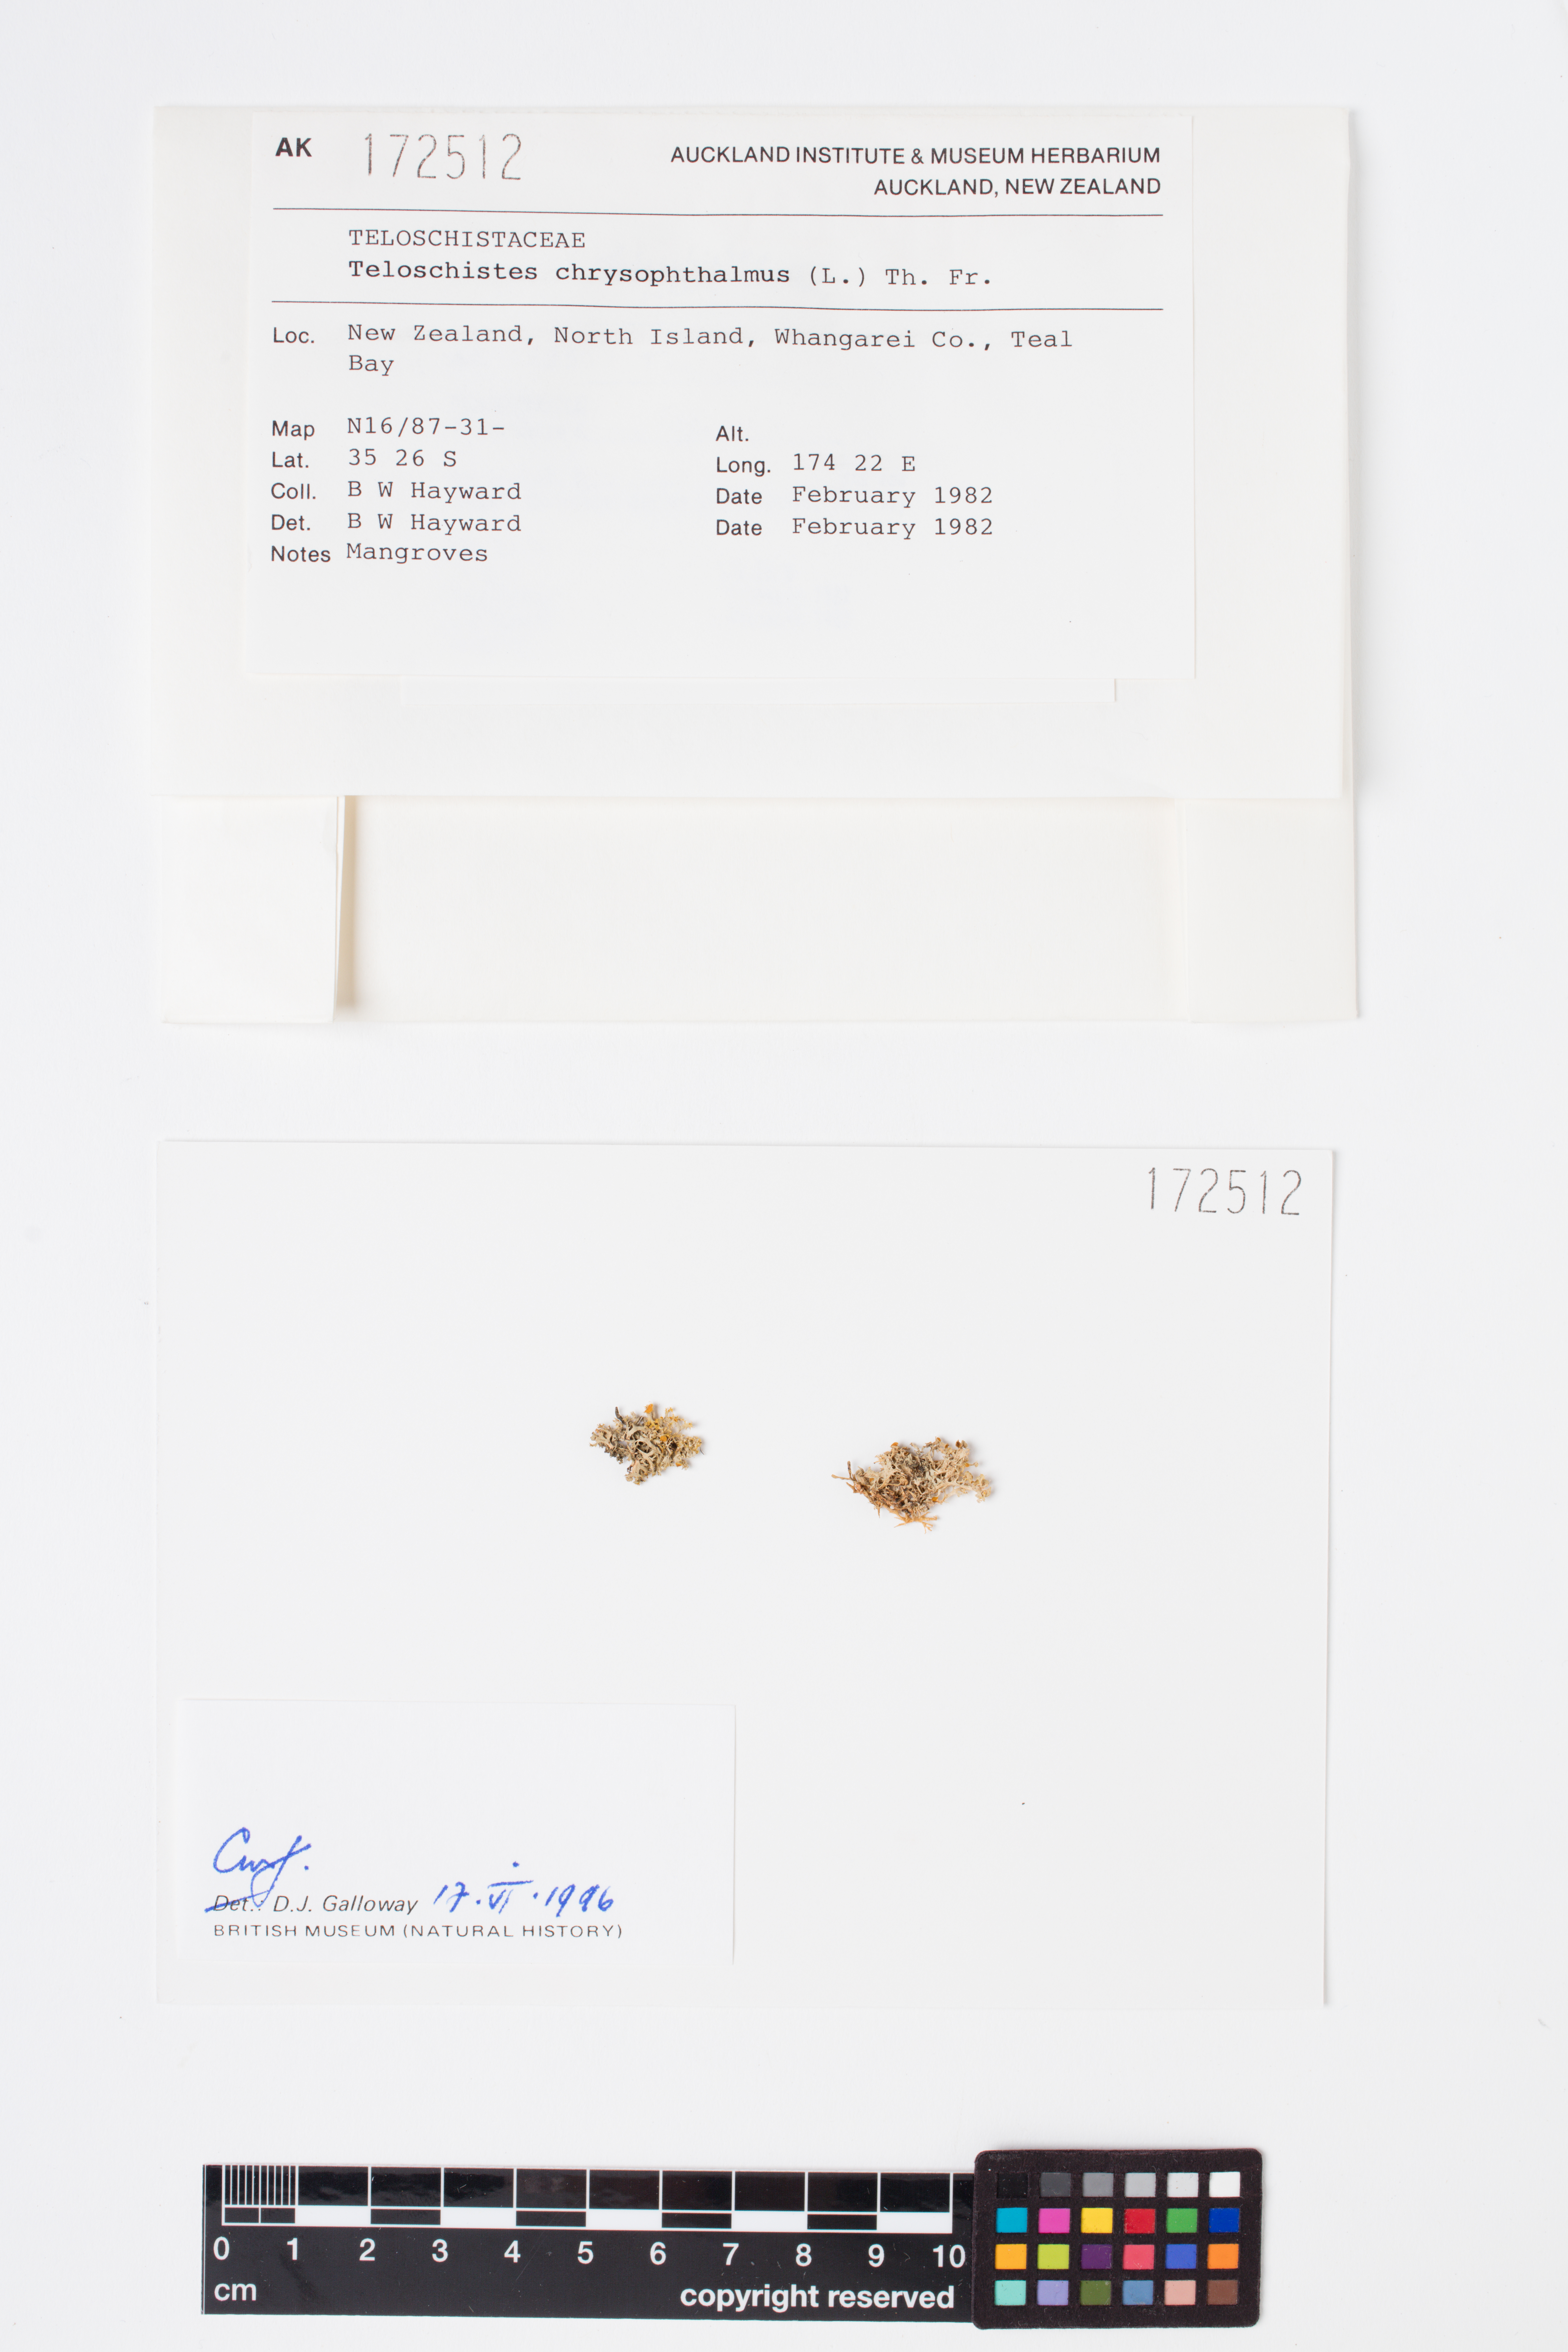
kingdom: Fungi
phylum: Ascomycota
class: Lecanoromycetes
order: Teloschistales
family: Teloschistaceae
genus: Niorma
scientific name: Niorma chrysophthalma
